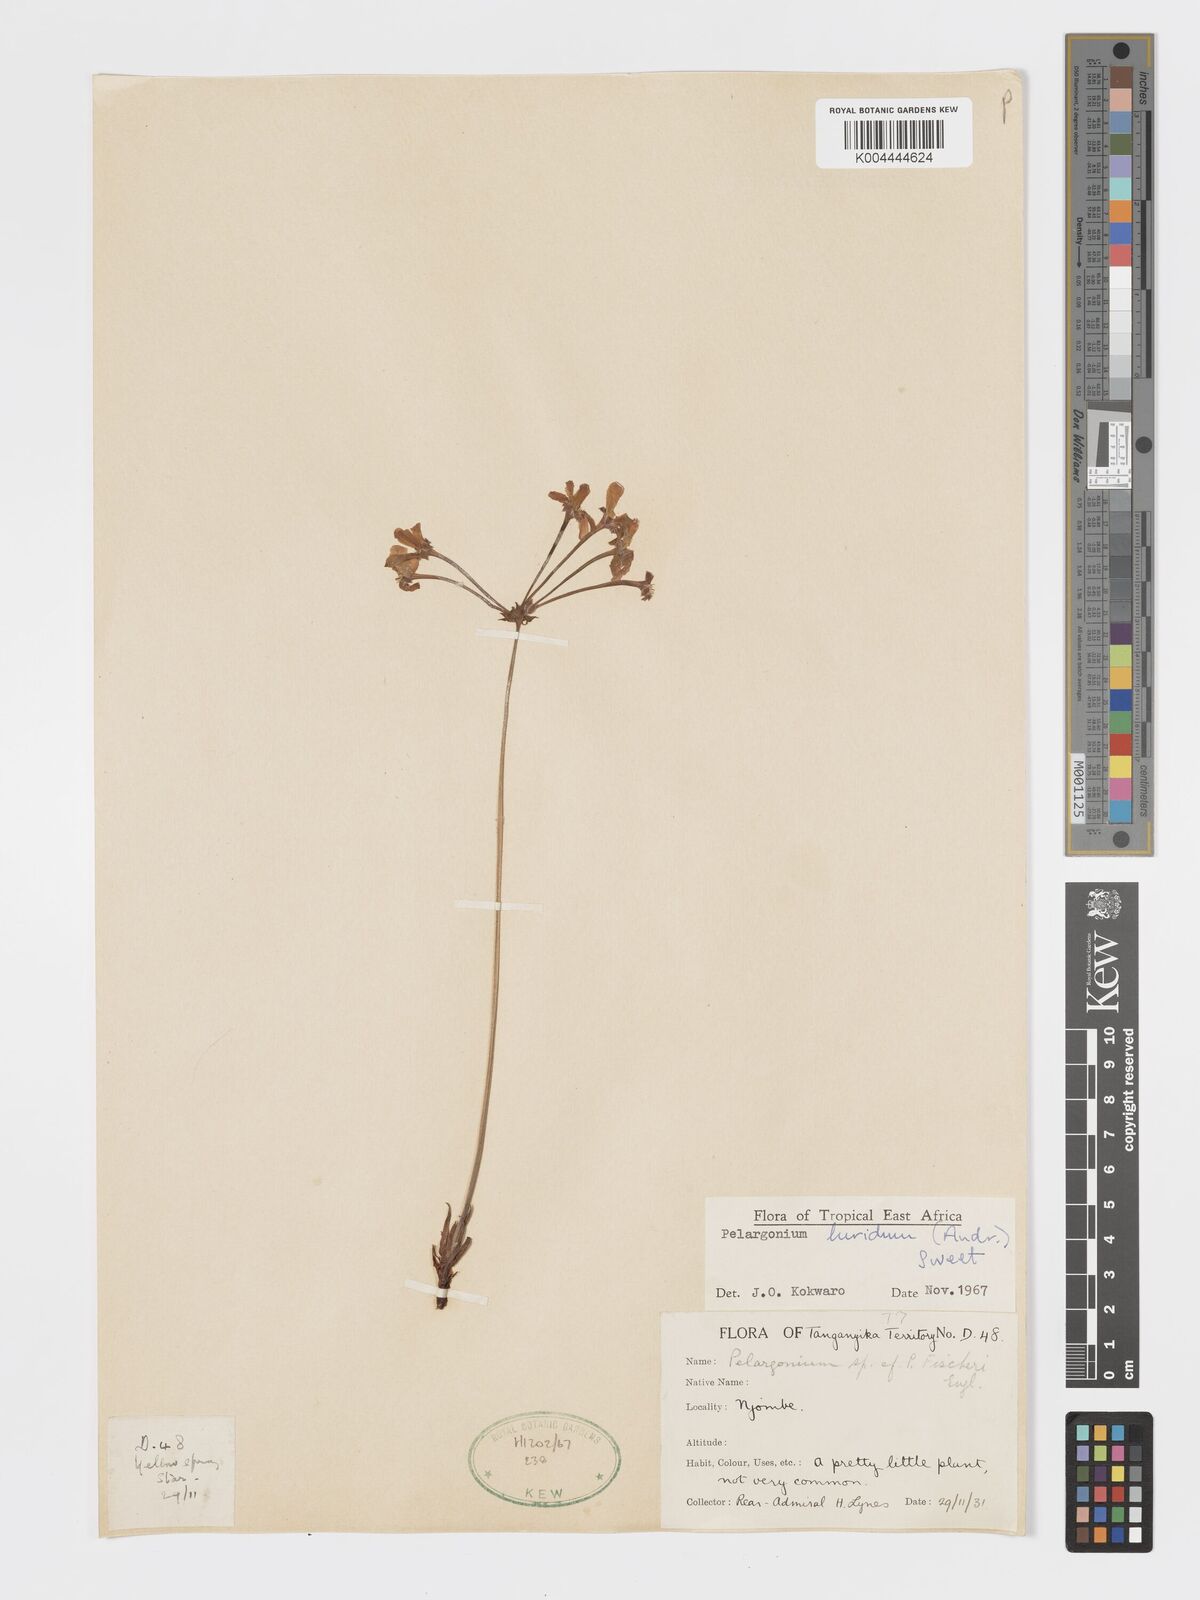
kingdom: Plantae
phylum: Tracheophyta
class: Magnoliopsida
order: Geraniales
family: Geraniaceae
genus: Pelargonium
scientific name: Pelargonium luridum
